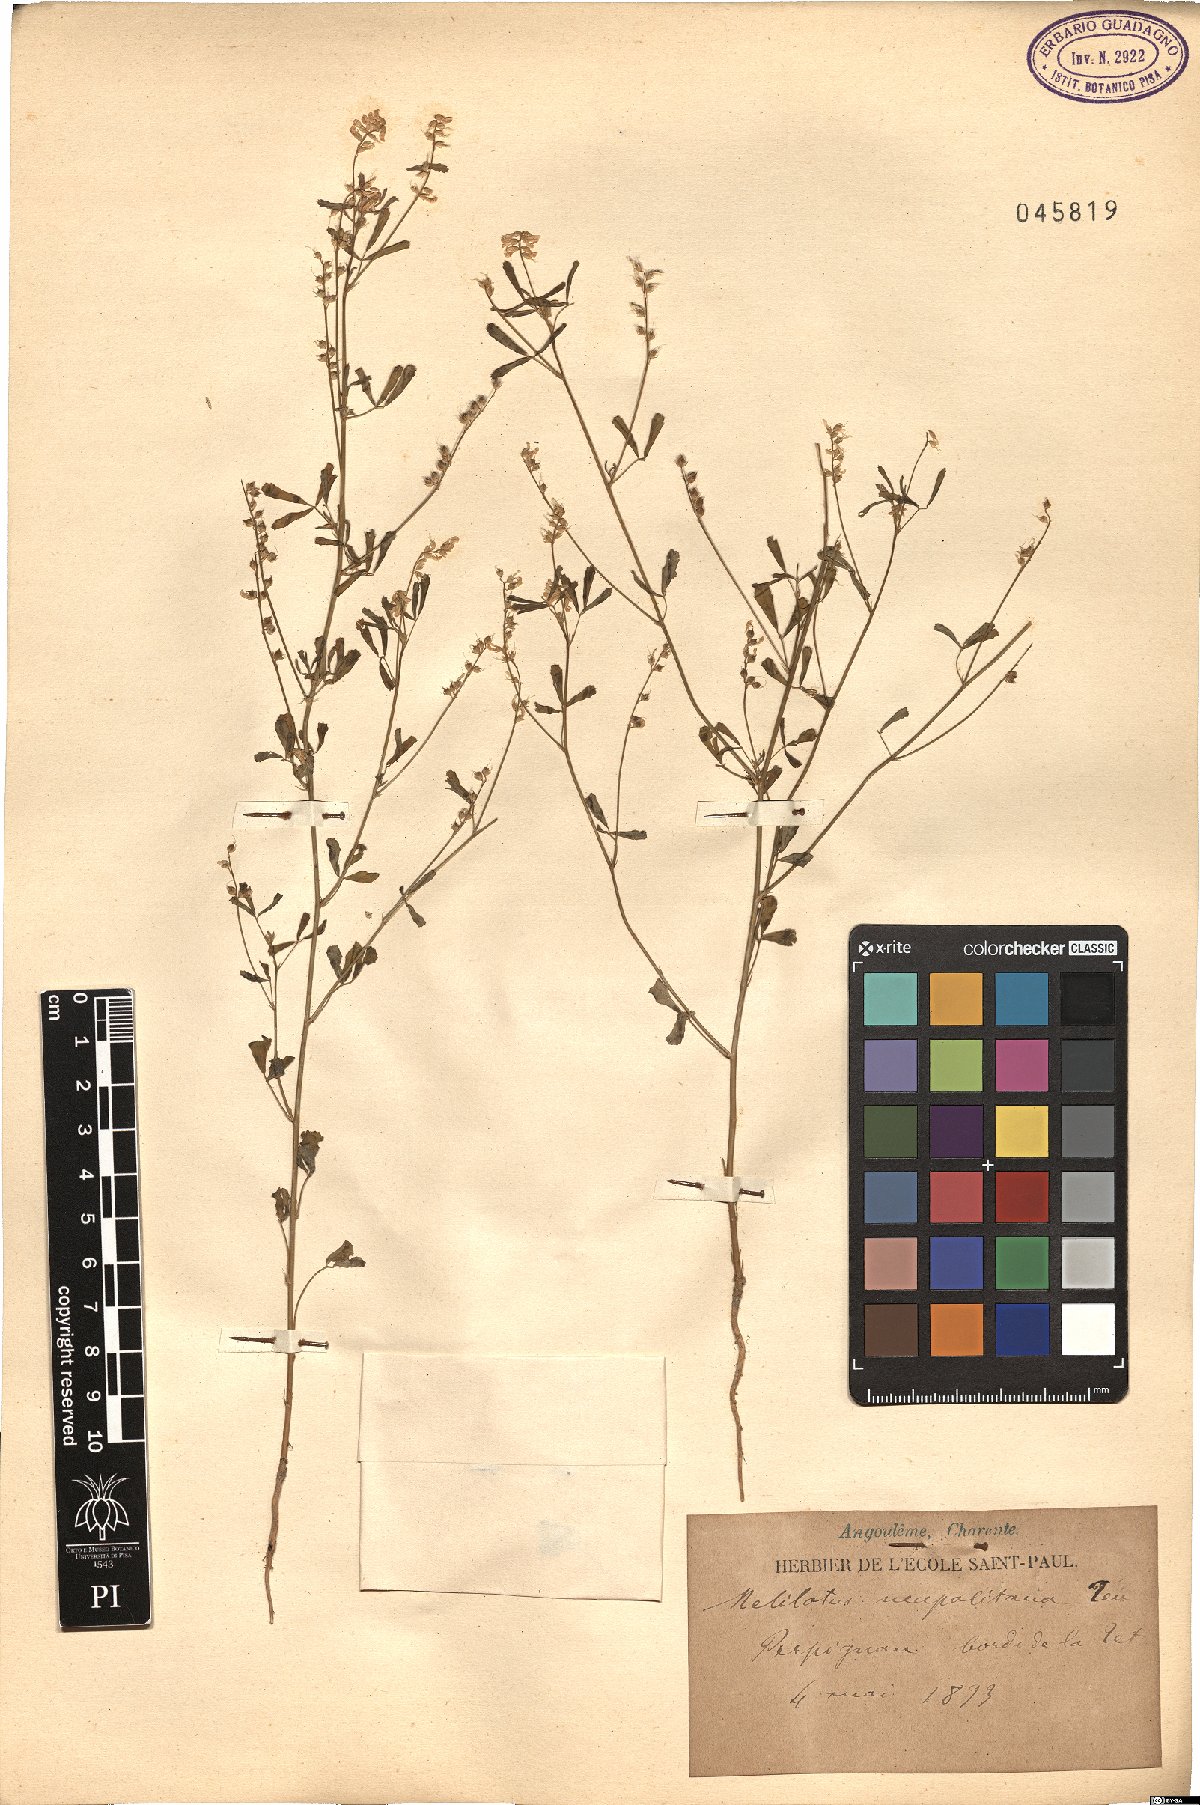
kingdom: Plantae
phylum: Tracheophyta
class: Magnoliopsida
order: Fabales
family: Fabaceae
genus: Melilotus
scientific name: Melilotus neapolitanus
